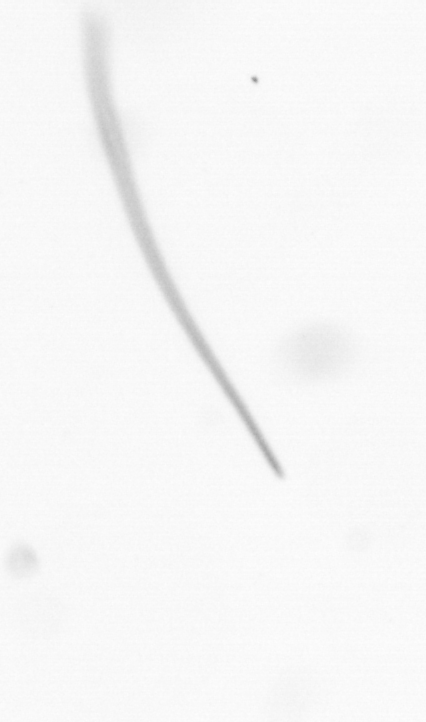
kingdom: Chromista
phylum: Ochrophyta
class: Bacillariophyceae
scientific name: Bacillariophyceae
